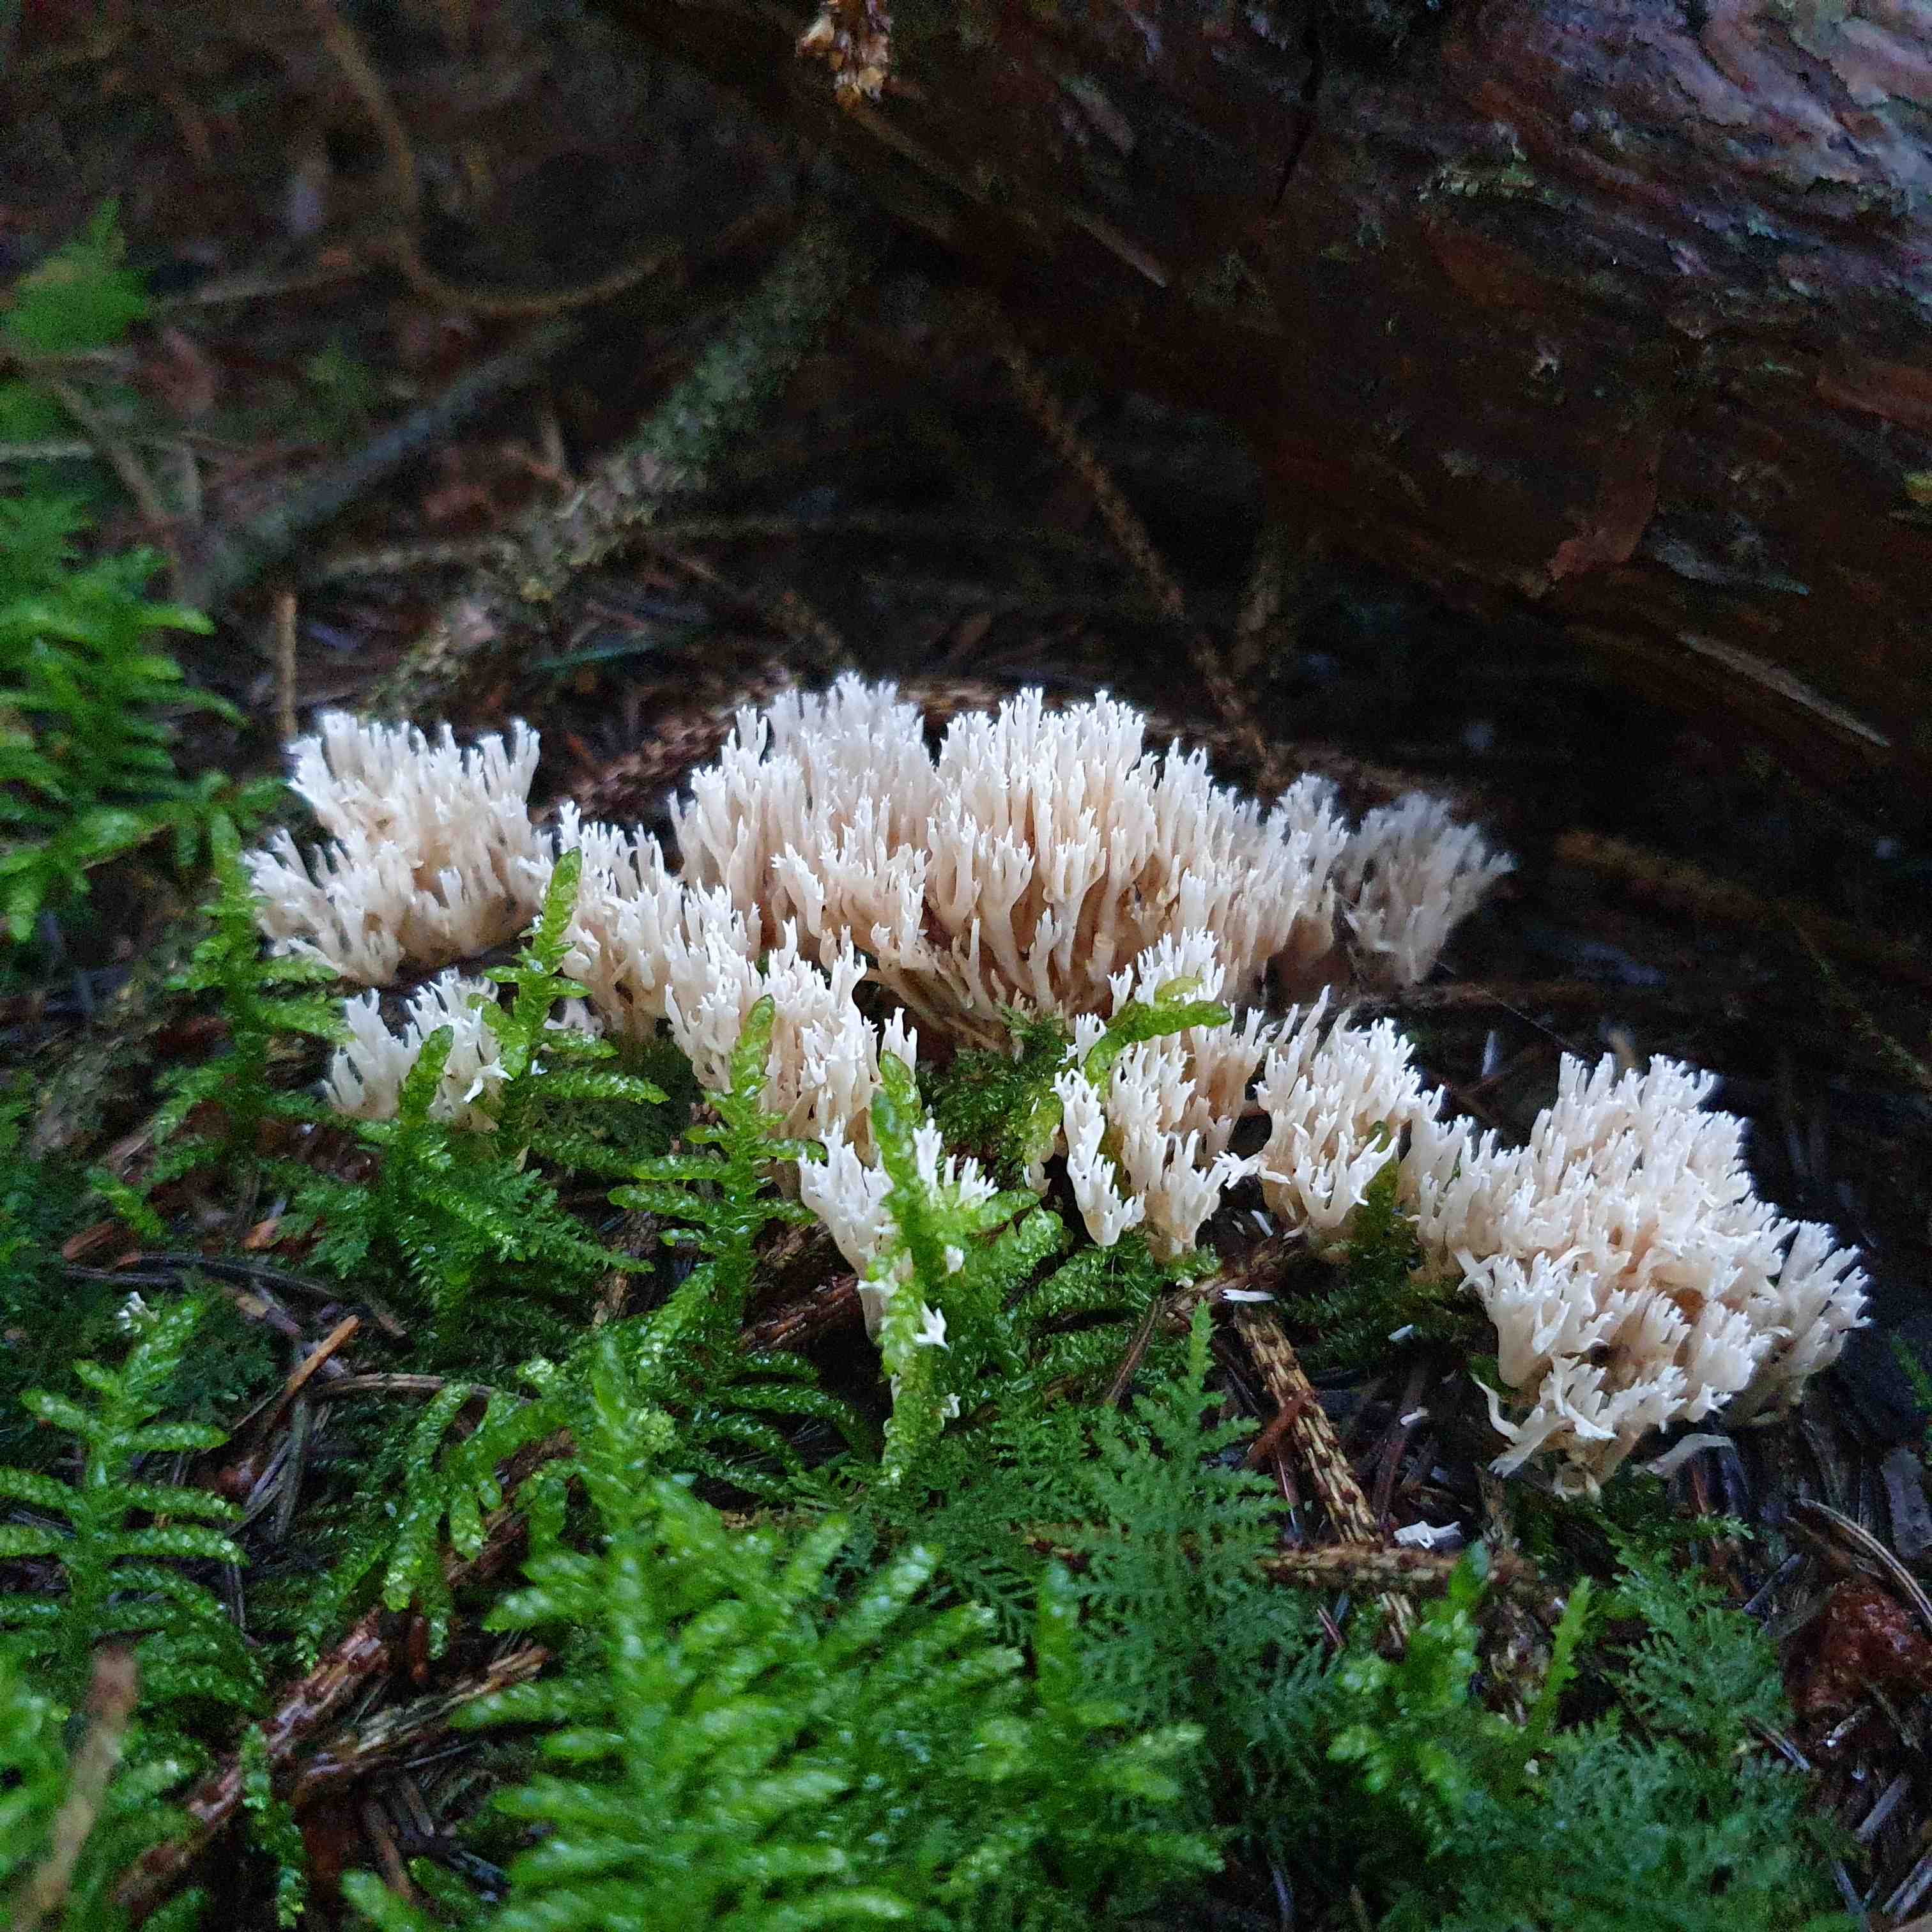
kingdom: Fungi
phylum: Basidiomycota
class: Agaricomycetes
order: Gomphales
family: Gomphaceae
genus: Ramaria
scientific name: Ramaria gracilis
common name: anis-koralsvamp
